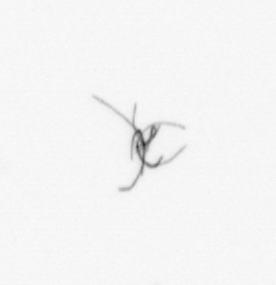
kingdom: Bacteria
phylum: Cyanobacteria
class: Cyanobacteriia
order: Cyanobacteriales
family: Microcoleaceae
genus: Trichodesmium
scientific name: Trichodesmium
